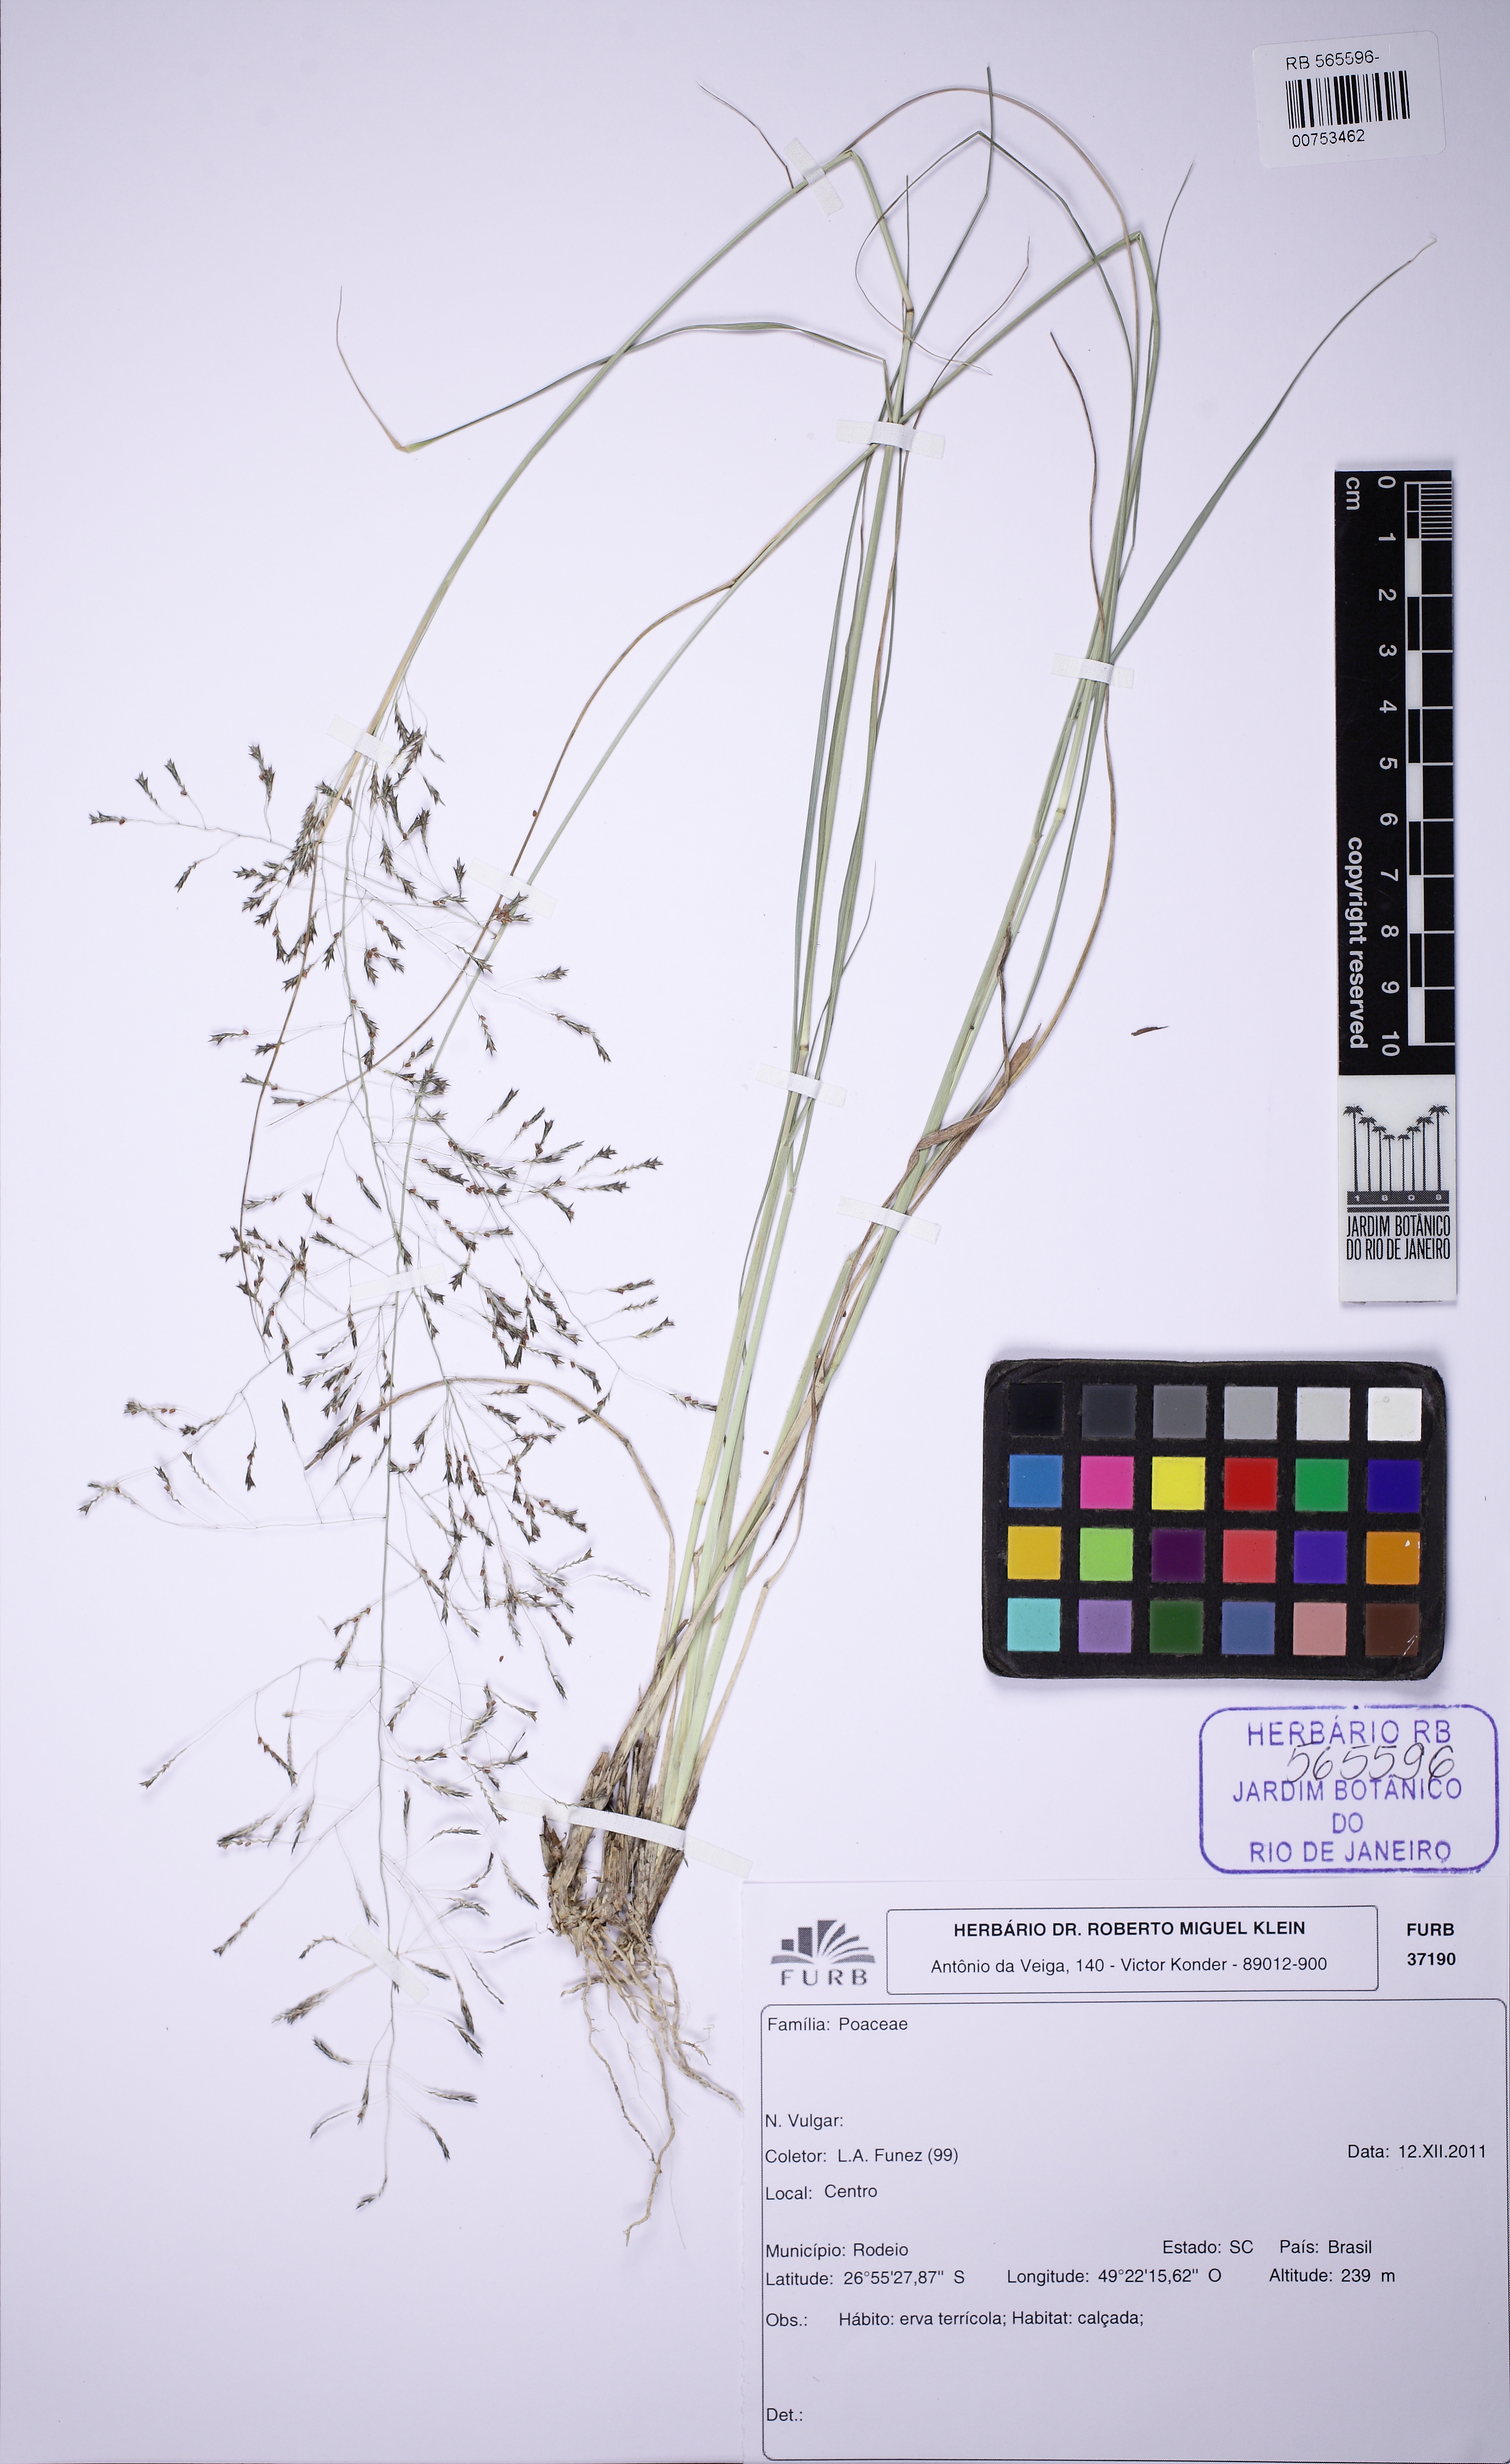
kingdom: Plantae
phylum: Tracheophyta
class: Liliopsida
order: Poales
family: Poaceae
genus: Eragrostis
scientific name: Eragrostis tenella
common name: Japanese lovegrass
